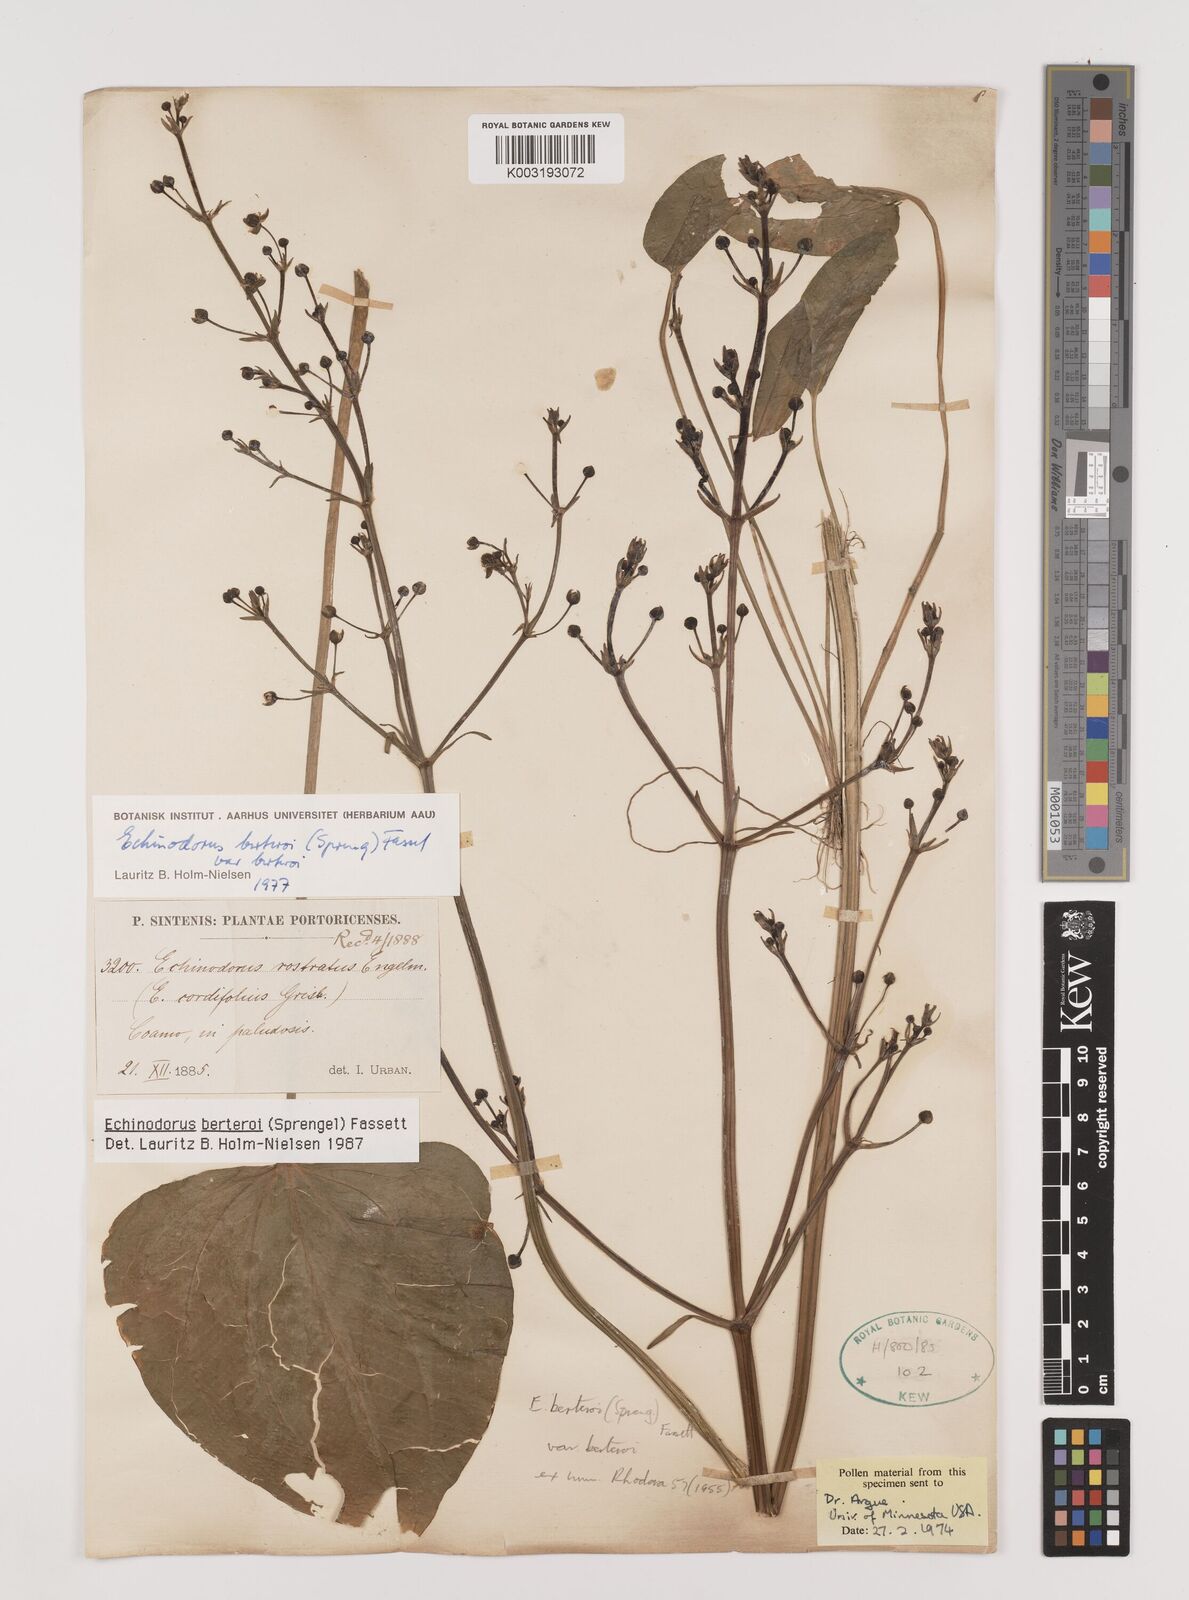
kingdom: Plantae
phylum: Tracheophyta
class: Liliopsida
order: Alismatales
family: Alismataceae
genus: Echinodorus
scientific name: Echinodorus berteroi
